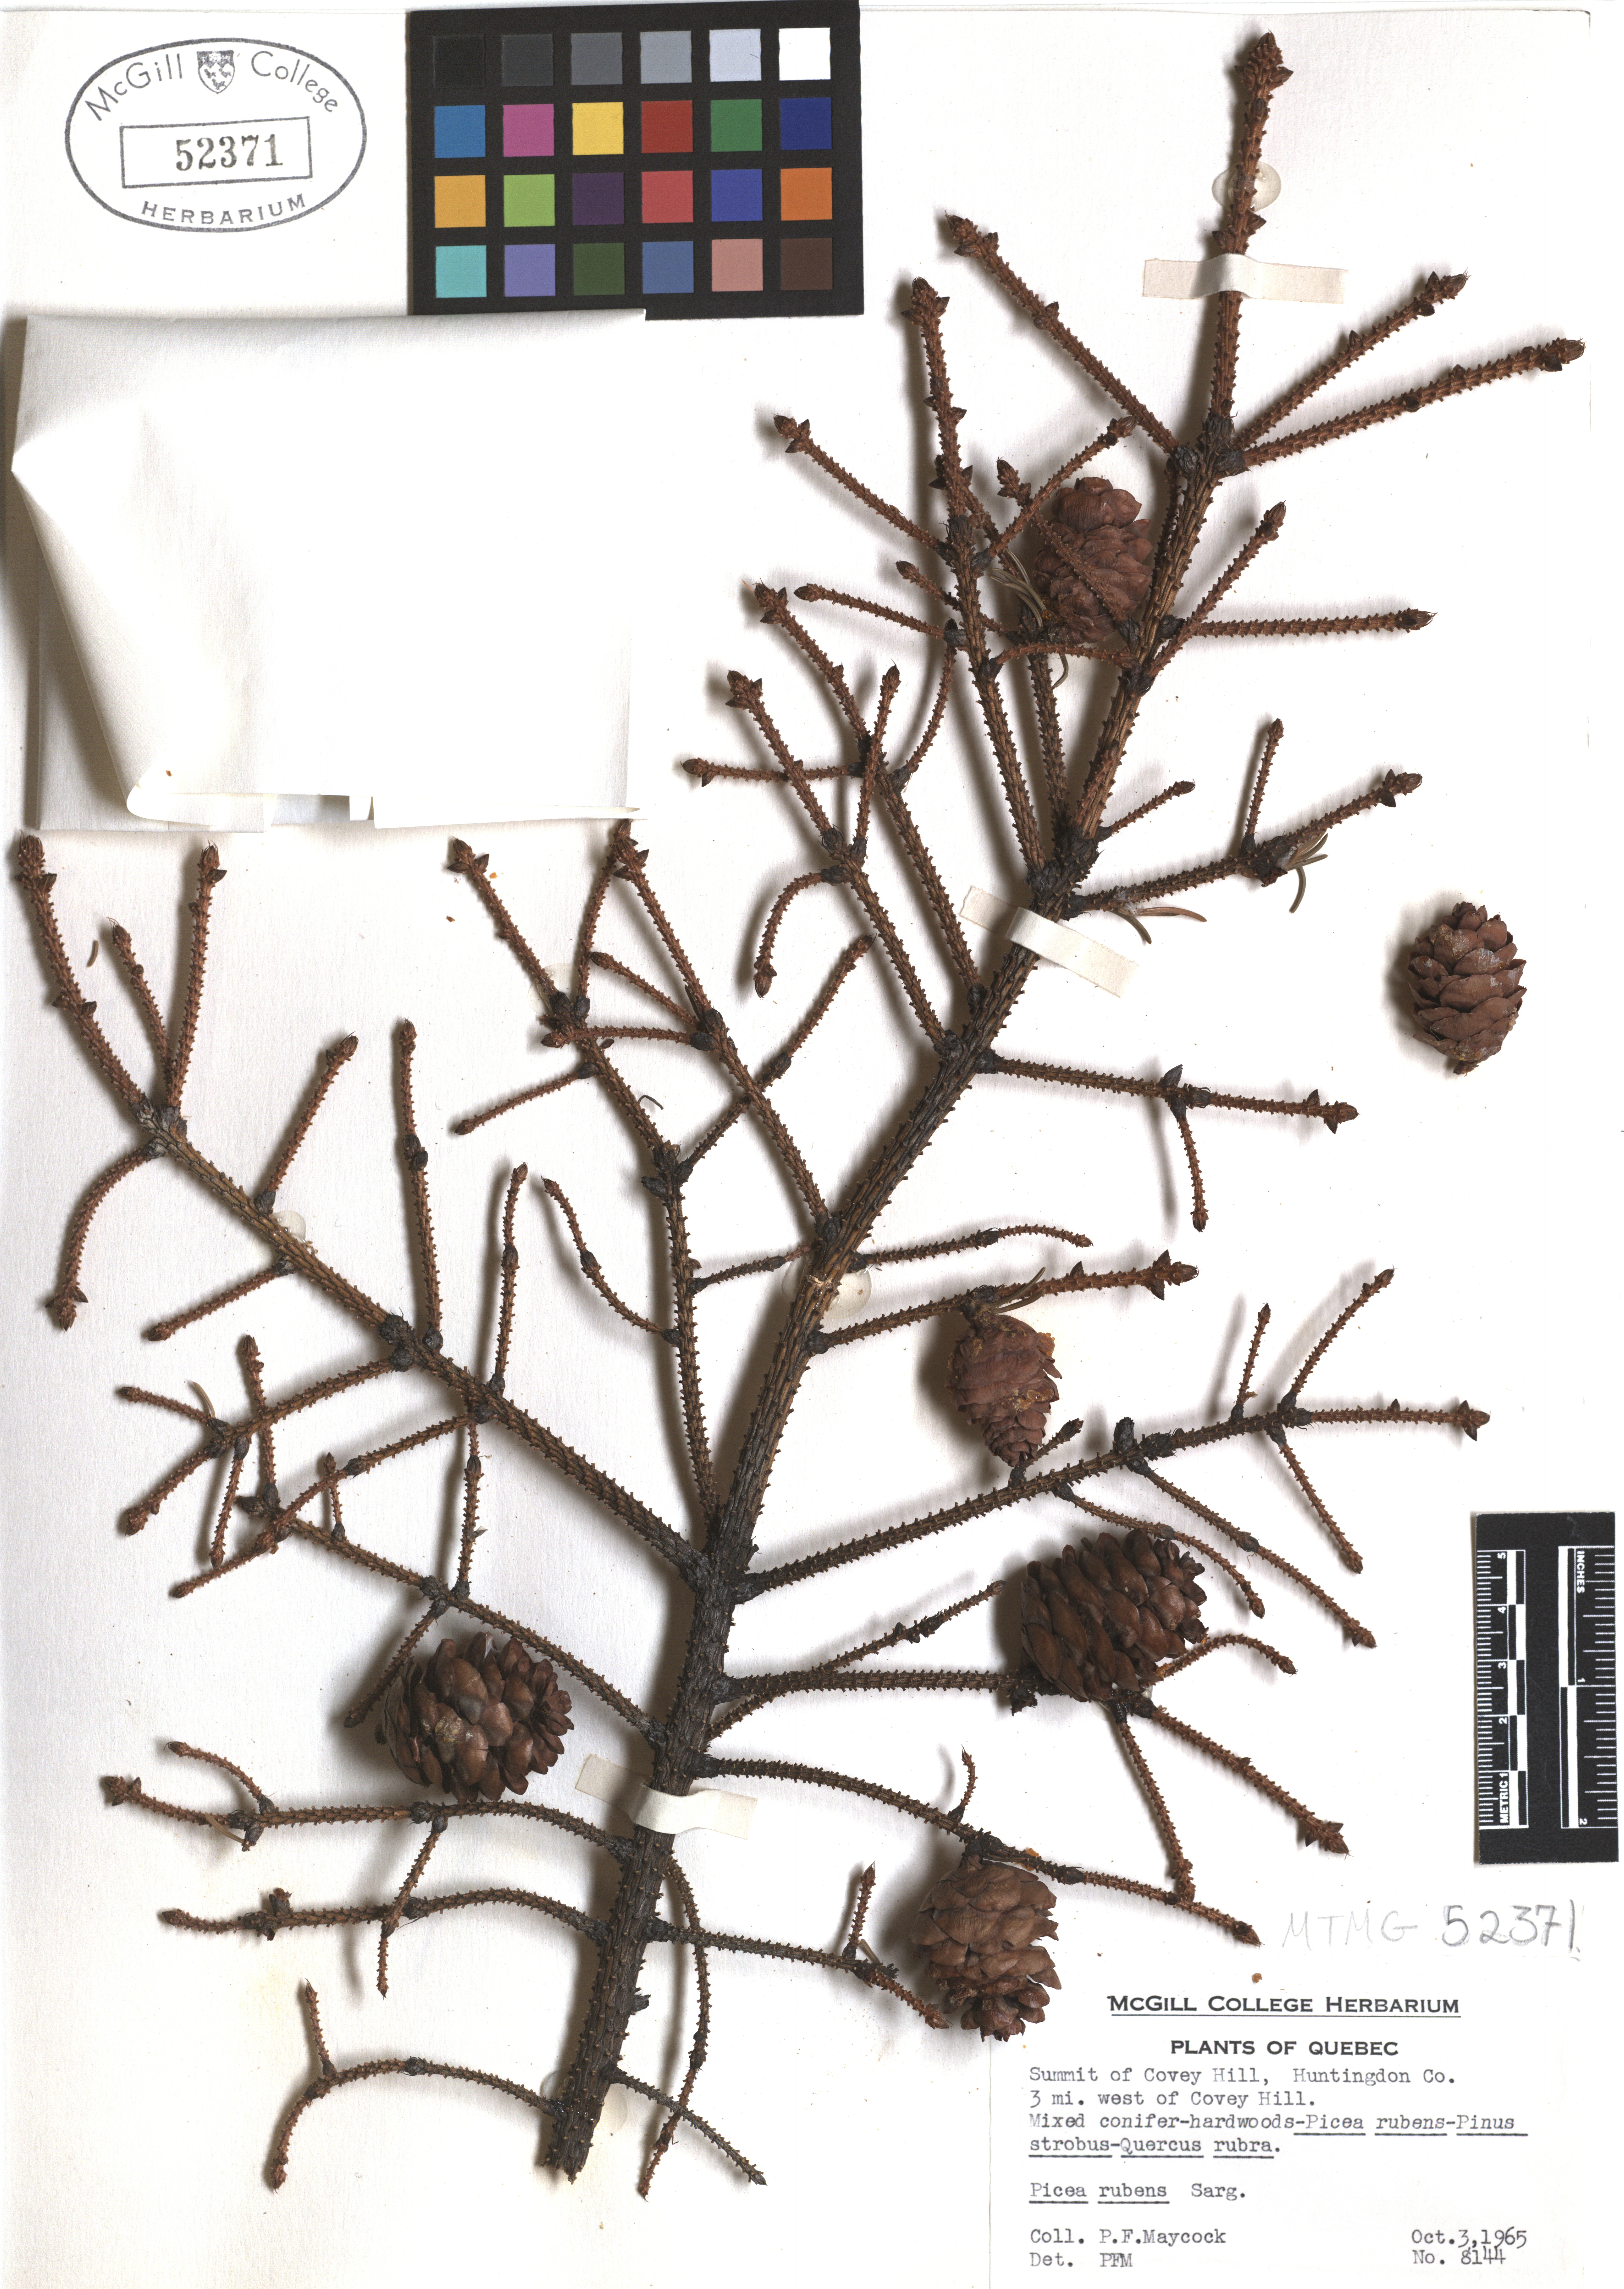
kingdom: Plantae
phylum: Tracheophyta
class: Pinopsida
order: Pinales
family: Pinaceae
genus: Picea
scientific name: Picea rubens
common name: Red spruce
